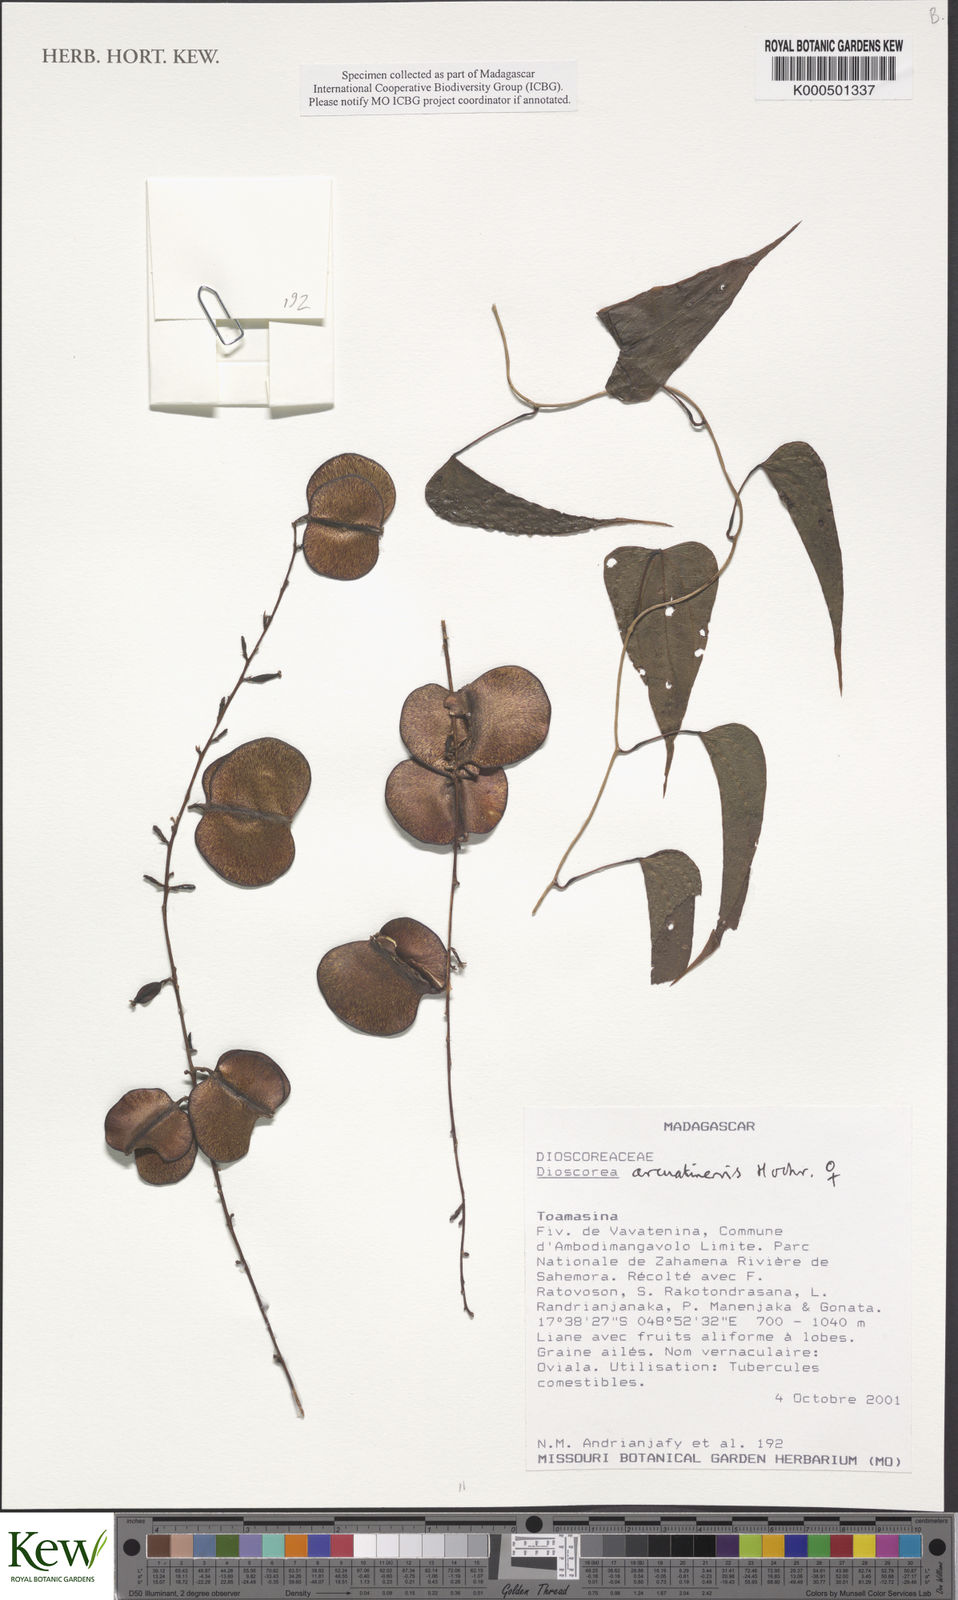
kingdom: Plantae
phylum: Tracheophyta
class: Liliopsida
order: Dioscoreales
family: Dioscoreaceae
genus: Dioscorea
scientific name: Dioscorea arcuatinervis
